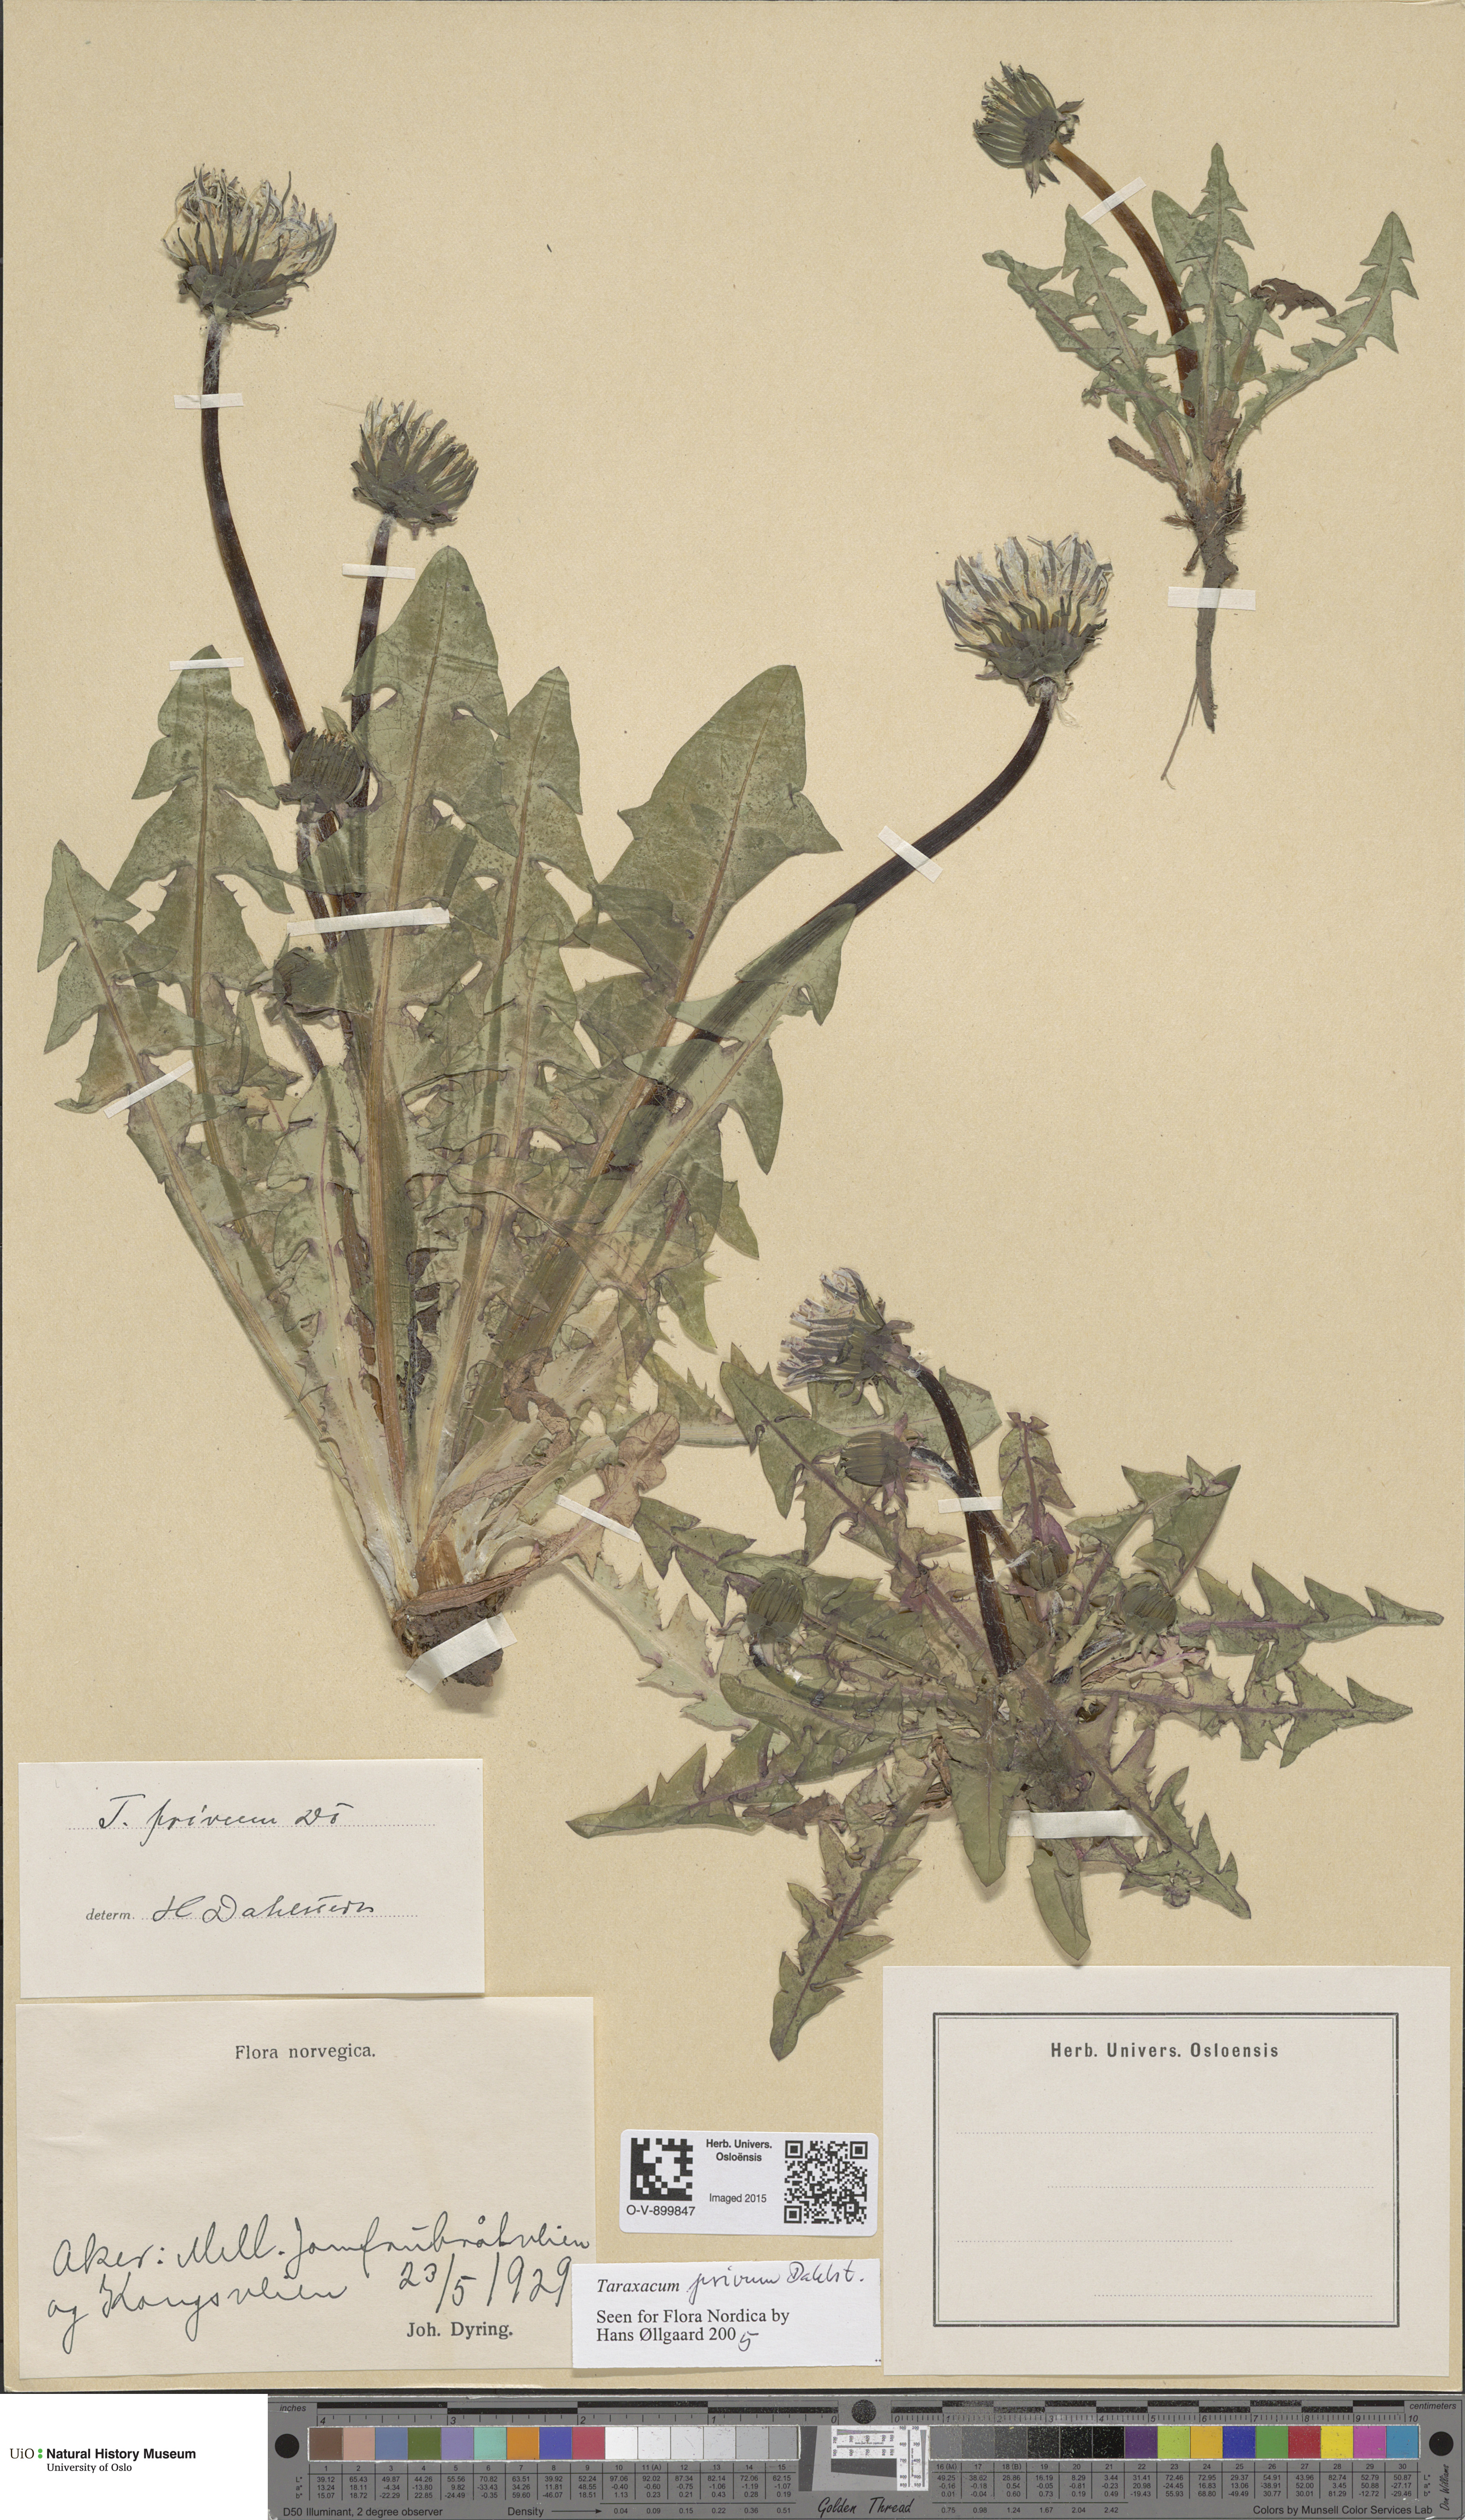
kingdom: Plantae
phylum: Tracheophyta
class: Magnoliopsida
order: Asterales
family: Asteraceae
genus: Taraxacum
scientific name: Taraxacum privum
